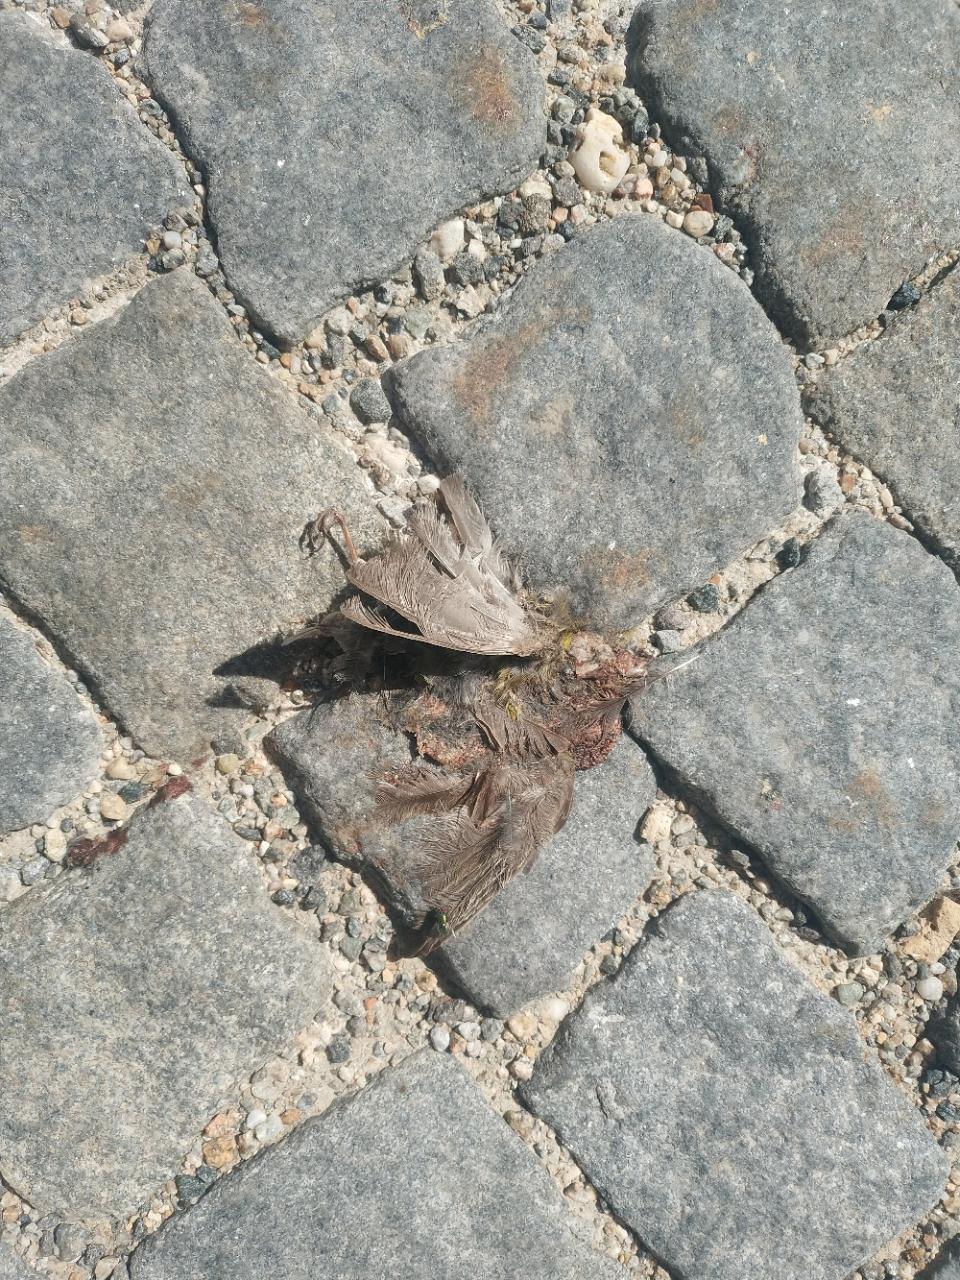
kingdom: Animalia
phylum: Chordata
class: Aves
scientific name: Aves
